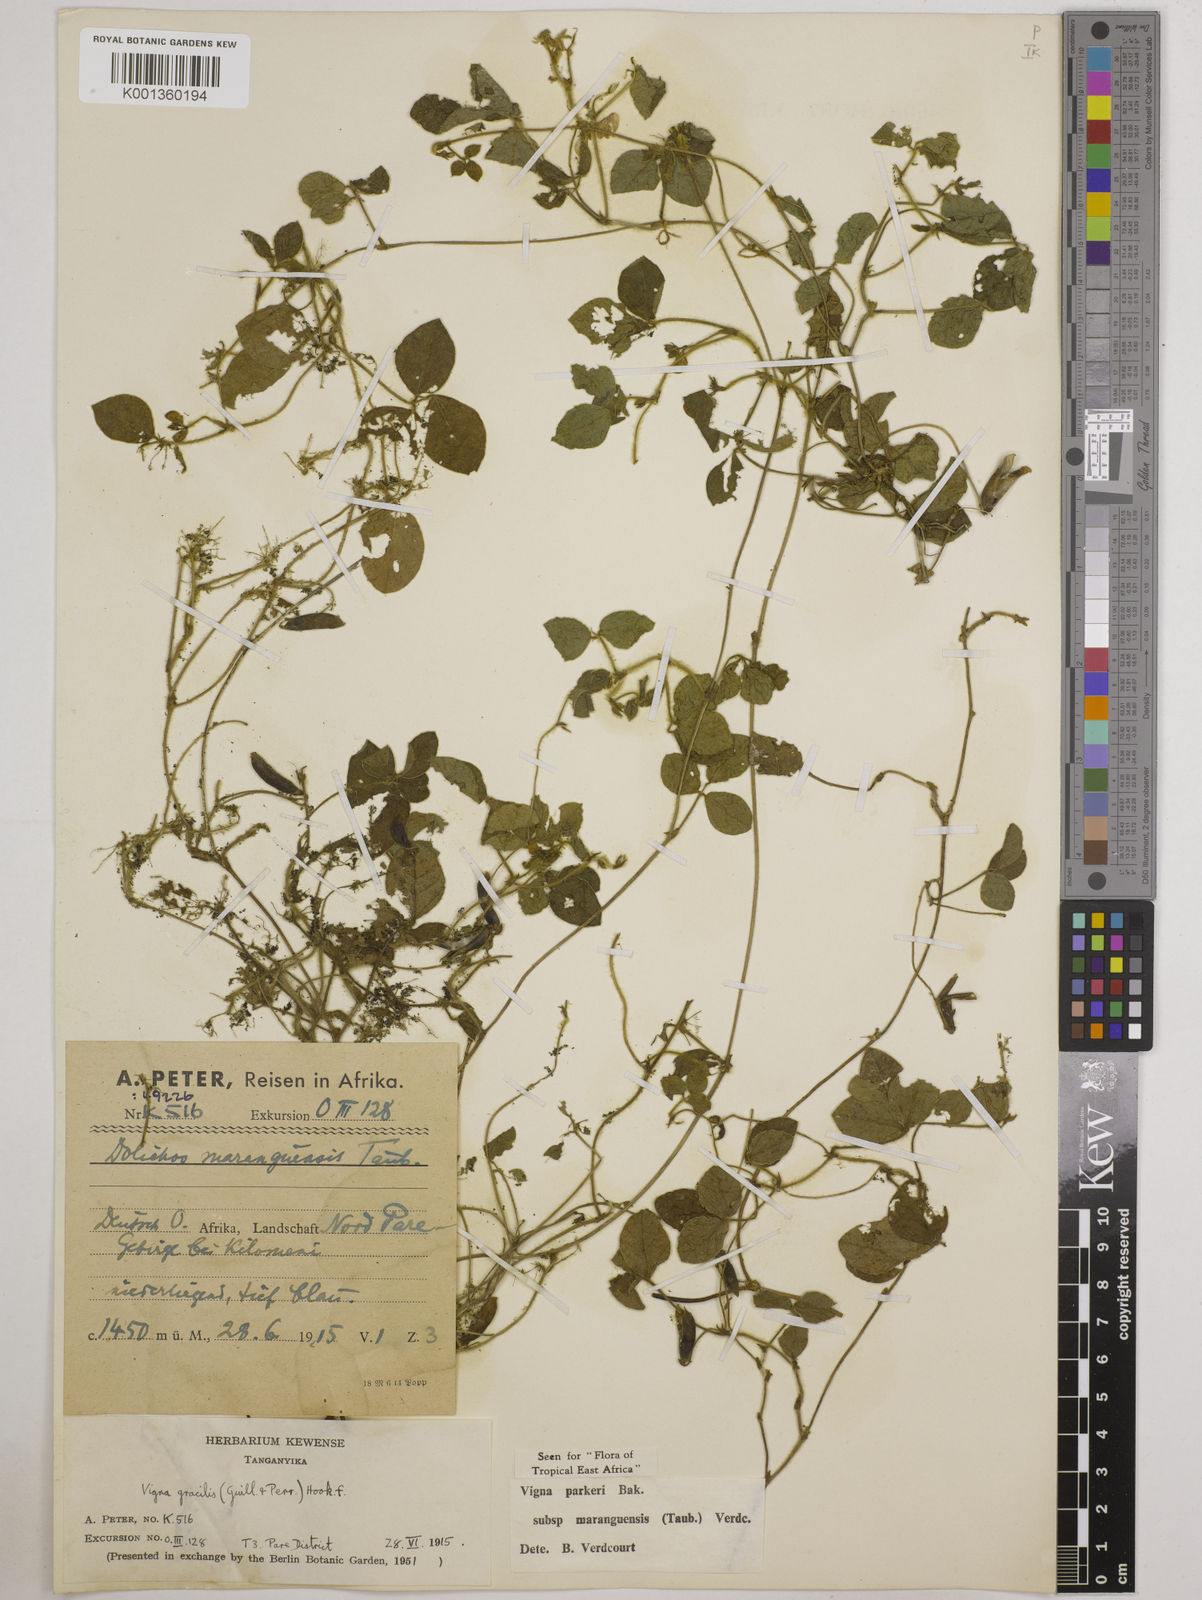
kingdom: Plantae
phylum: Tracheophyta
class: Magnoliopsida
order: Fabales
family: Fabaceae
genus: Vigna
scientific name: Vigna
